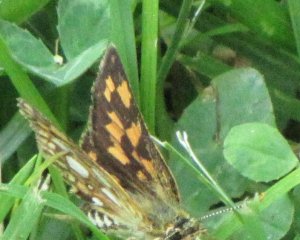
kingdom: Animalia
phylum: Arthropoda
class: Insecta
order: Lepidoptera
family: Hesperiidae
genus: Carterocephalus
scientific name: Carterocephalus palaemon
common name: Chequered Skipper
